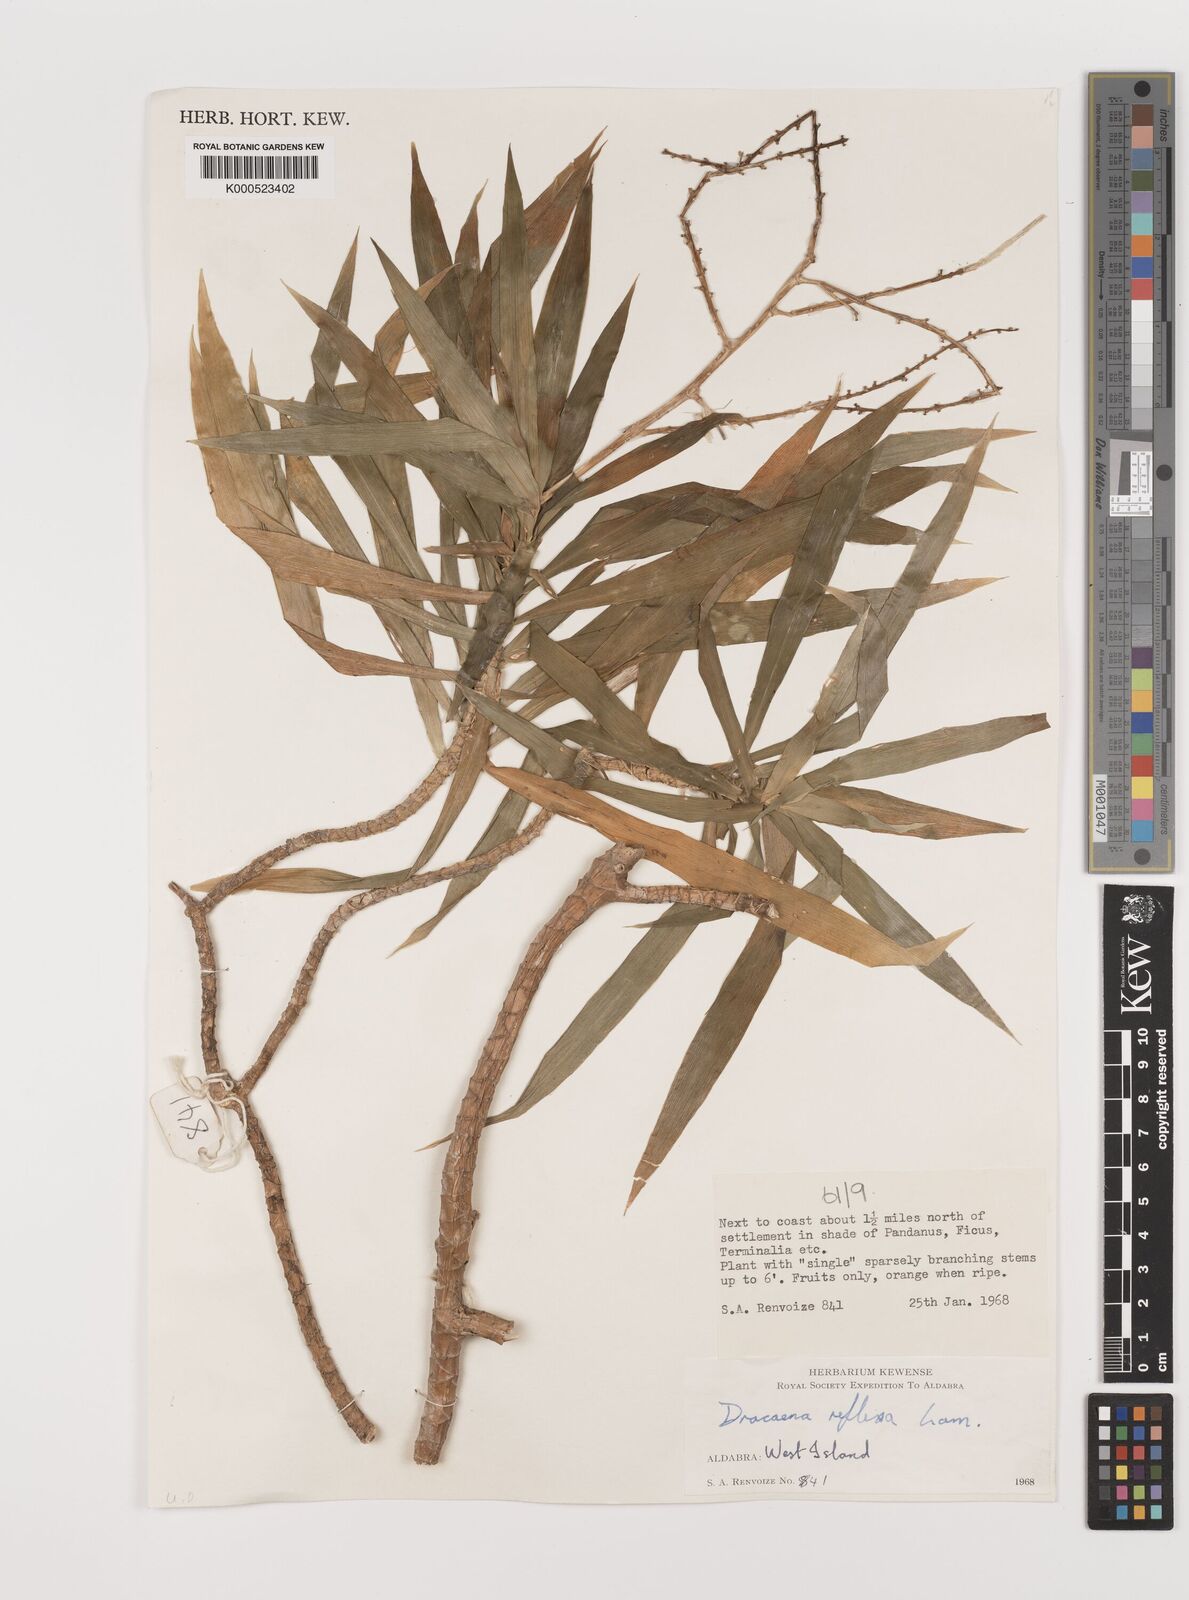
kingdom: Plantae
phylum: Tracheophyta
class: Liliopsida
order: Asparagales
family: Asparagaceae
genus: Dracaena
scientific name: Dracaena reflexa
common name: Song-of-india
